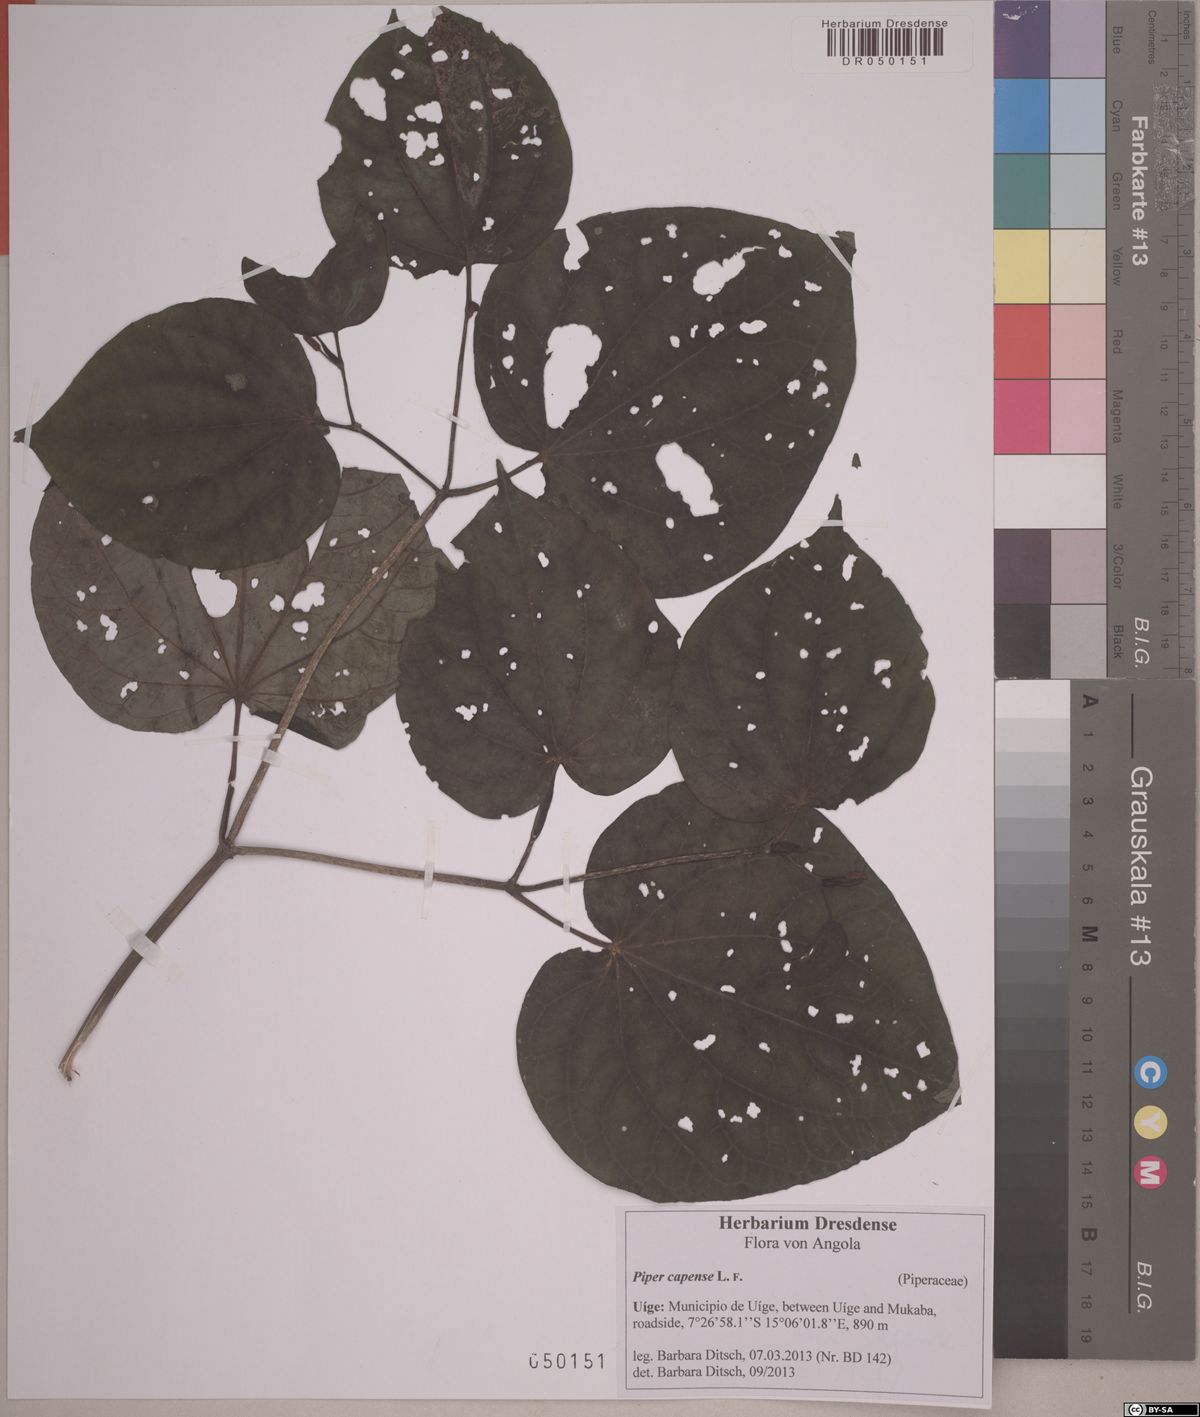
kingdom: Plantae
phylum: Tracheophyta
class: Magnoliopsida
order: Piperales
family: Piperaceae
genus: Piper
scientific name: Piper capense
